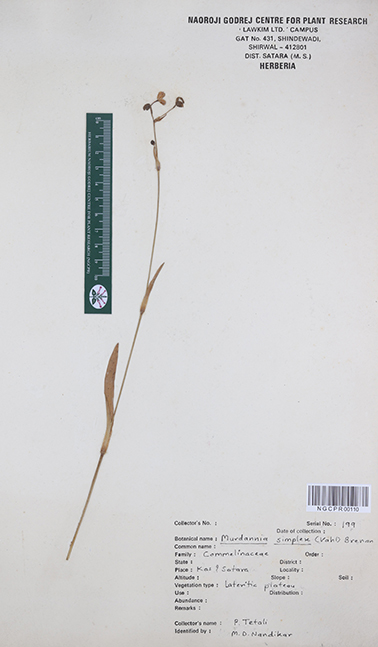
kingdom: Plantae
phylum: Tracheophyta
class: Liliopsida
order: Commelinales
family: Commelinaceae
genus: Murdannia
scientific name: Murdannia simplex
